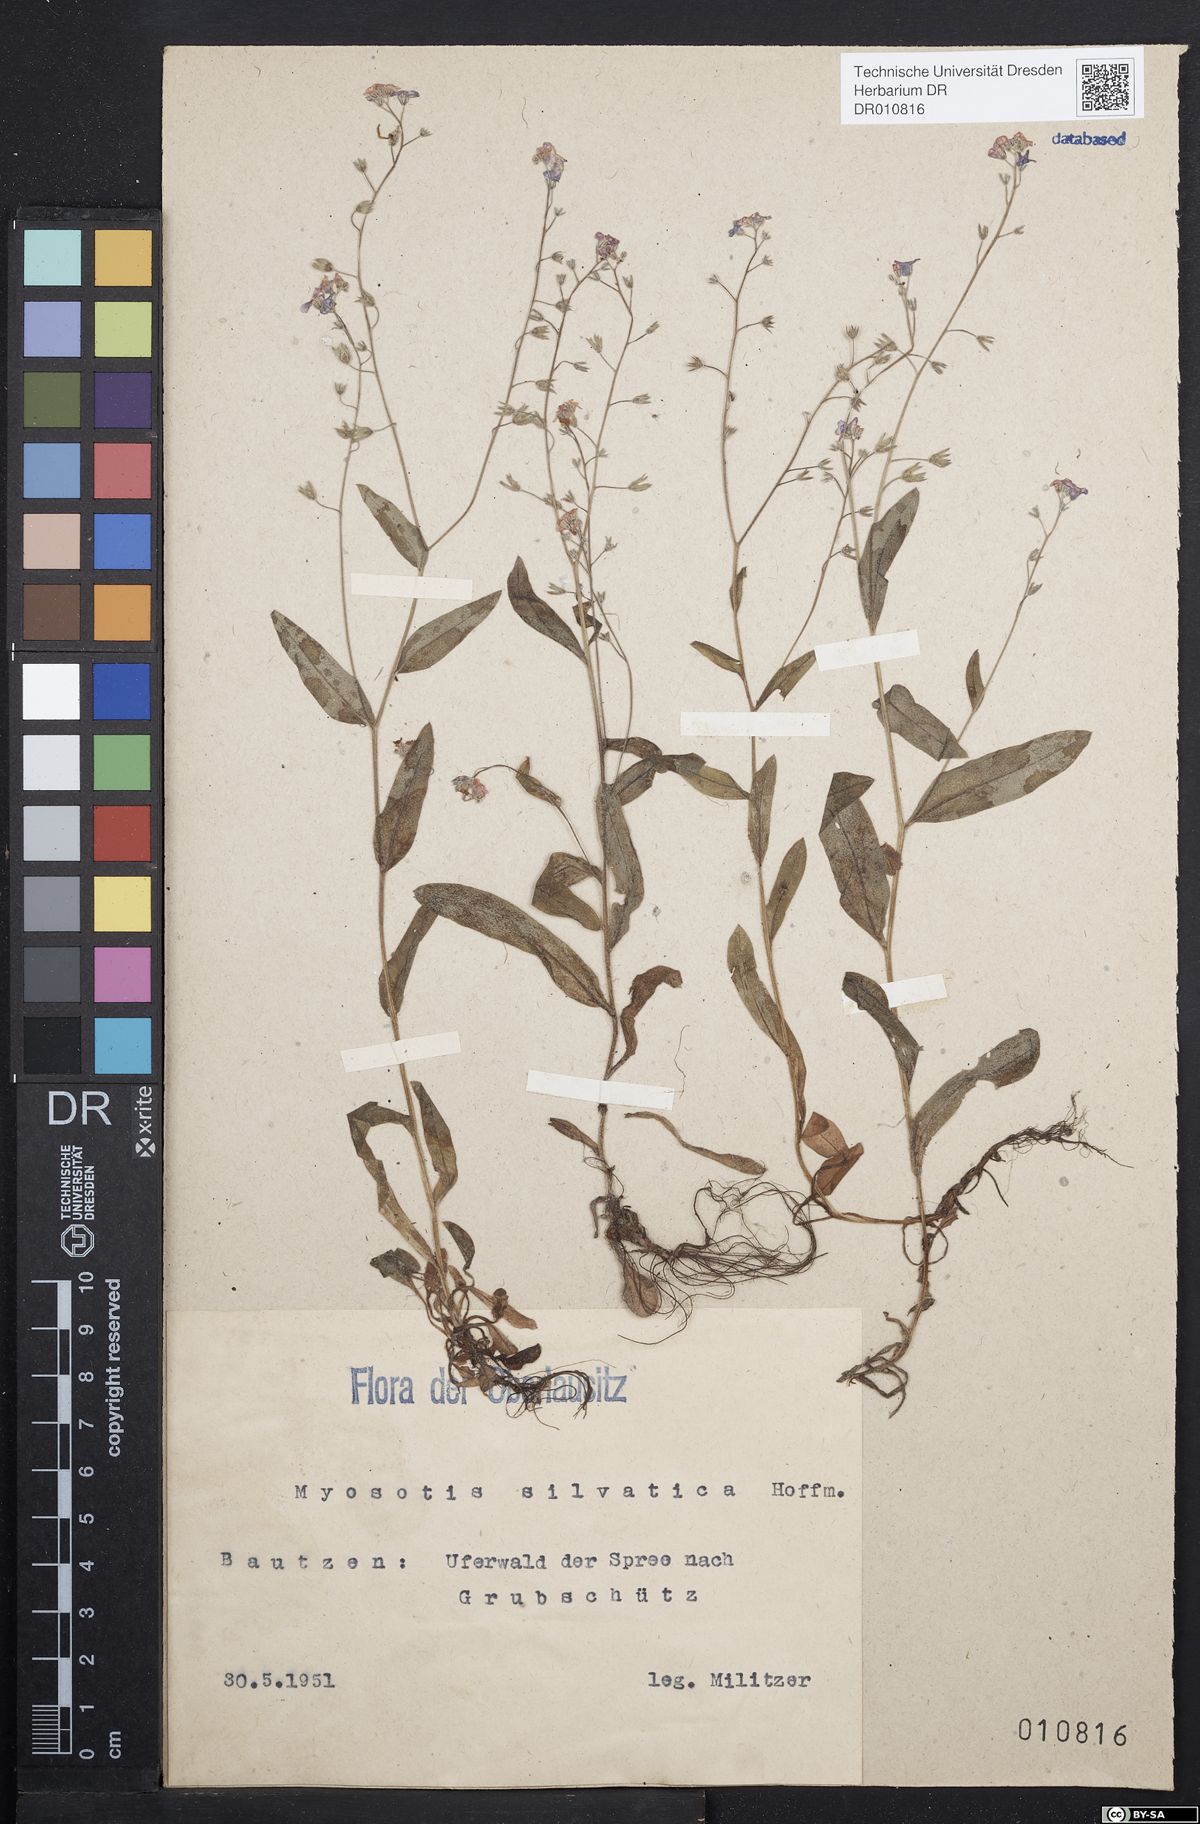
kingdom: Plantae
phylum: Tracheophyta
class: Magnoliopsida
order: Boraginales
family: Boraginaceae
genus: Myosotis
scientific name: Myosotis sylvatica
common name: Wood forget-me-not
